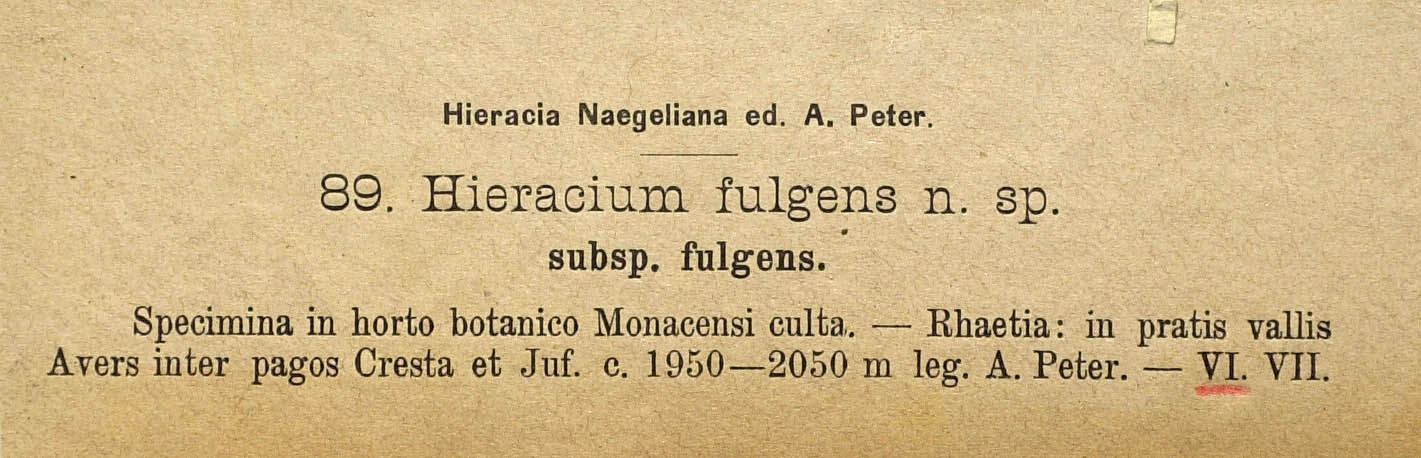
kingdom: Plantae
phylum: Tracheophyta
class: Magnoliopsida
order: Asterales
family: Asteraceae
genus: Pilosella
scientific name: Pilosella notha
